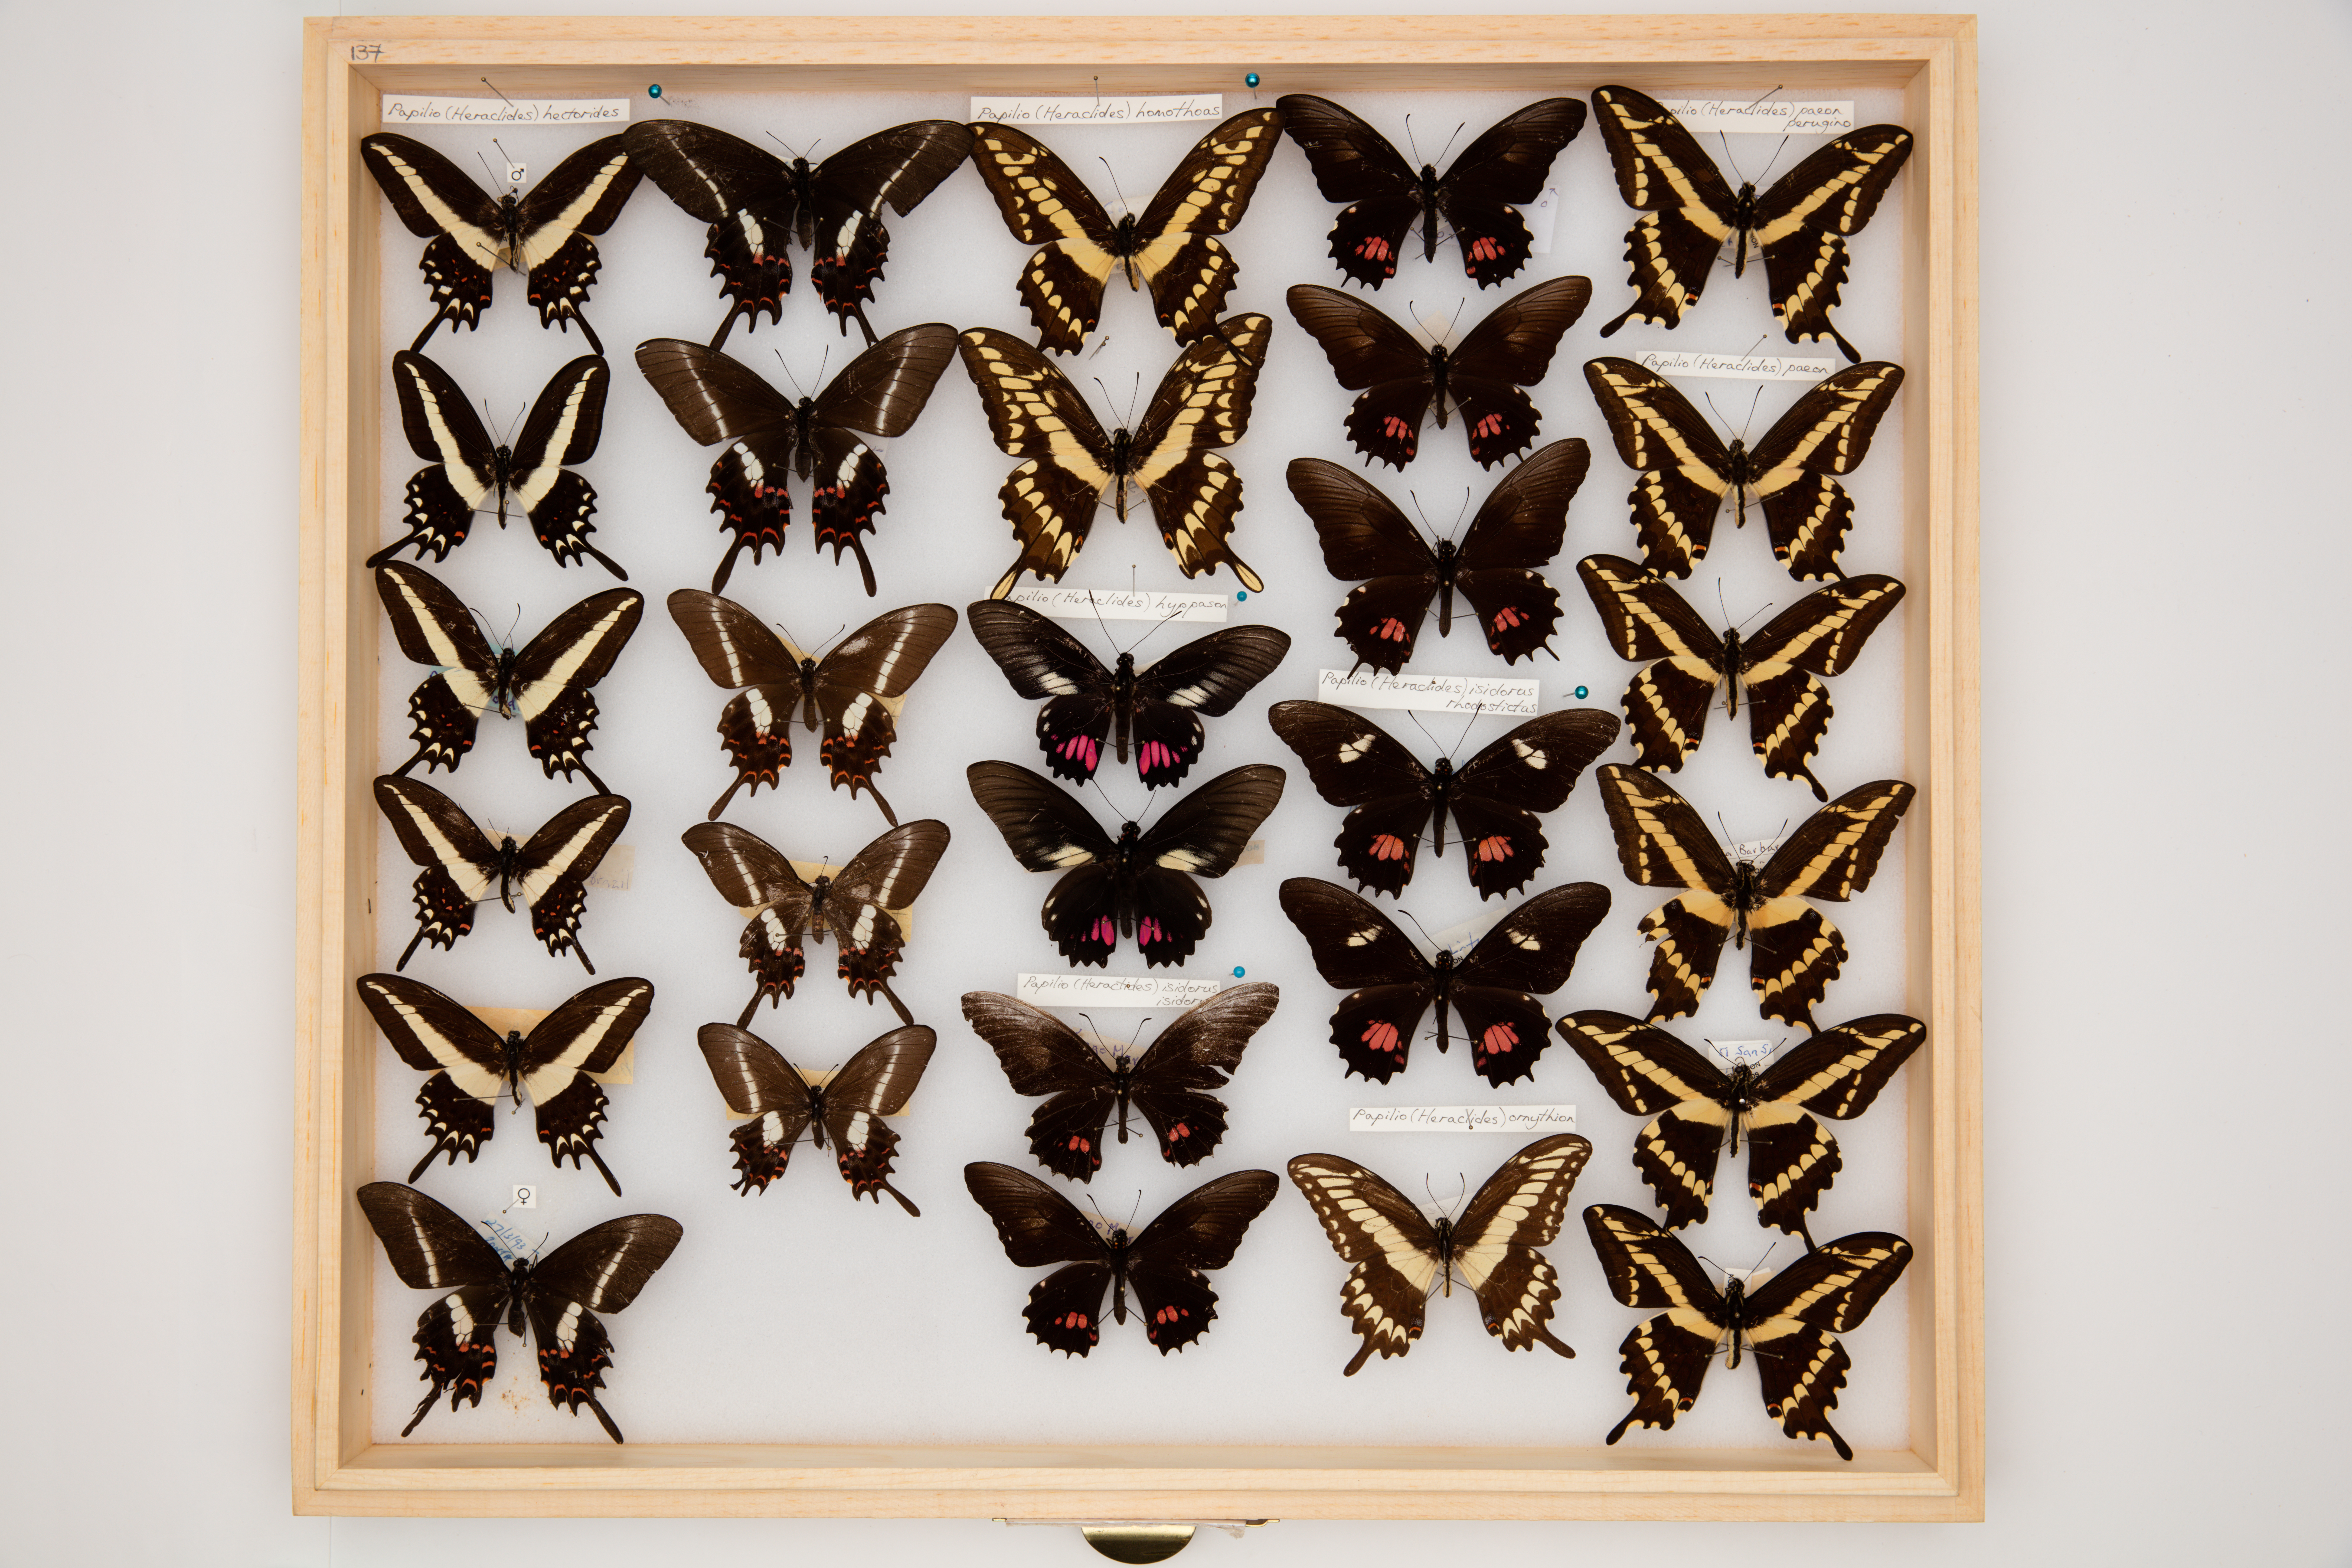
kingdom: Animalia
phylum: Arthropoda
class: Insecta
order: Lepidoptera
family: Papilionidae
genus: Papilio
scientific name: Papilio hectorides
